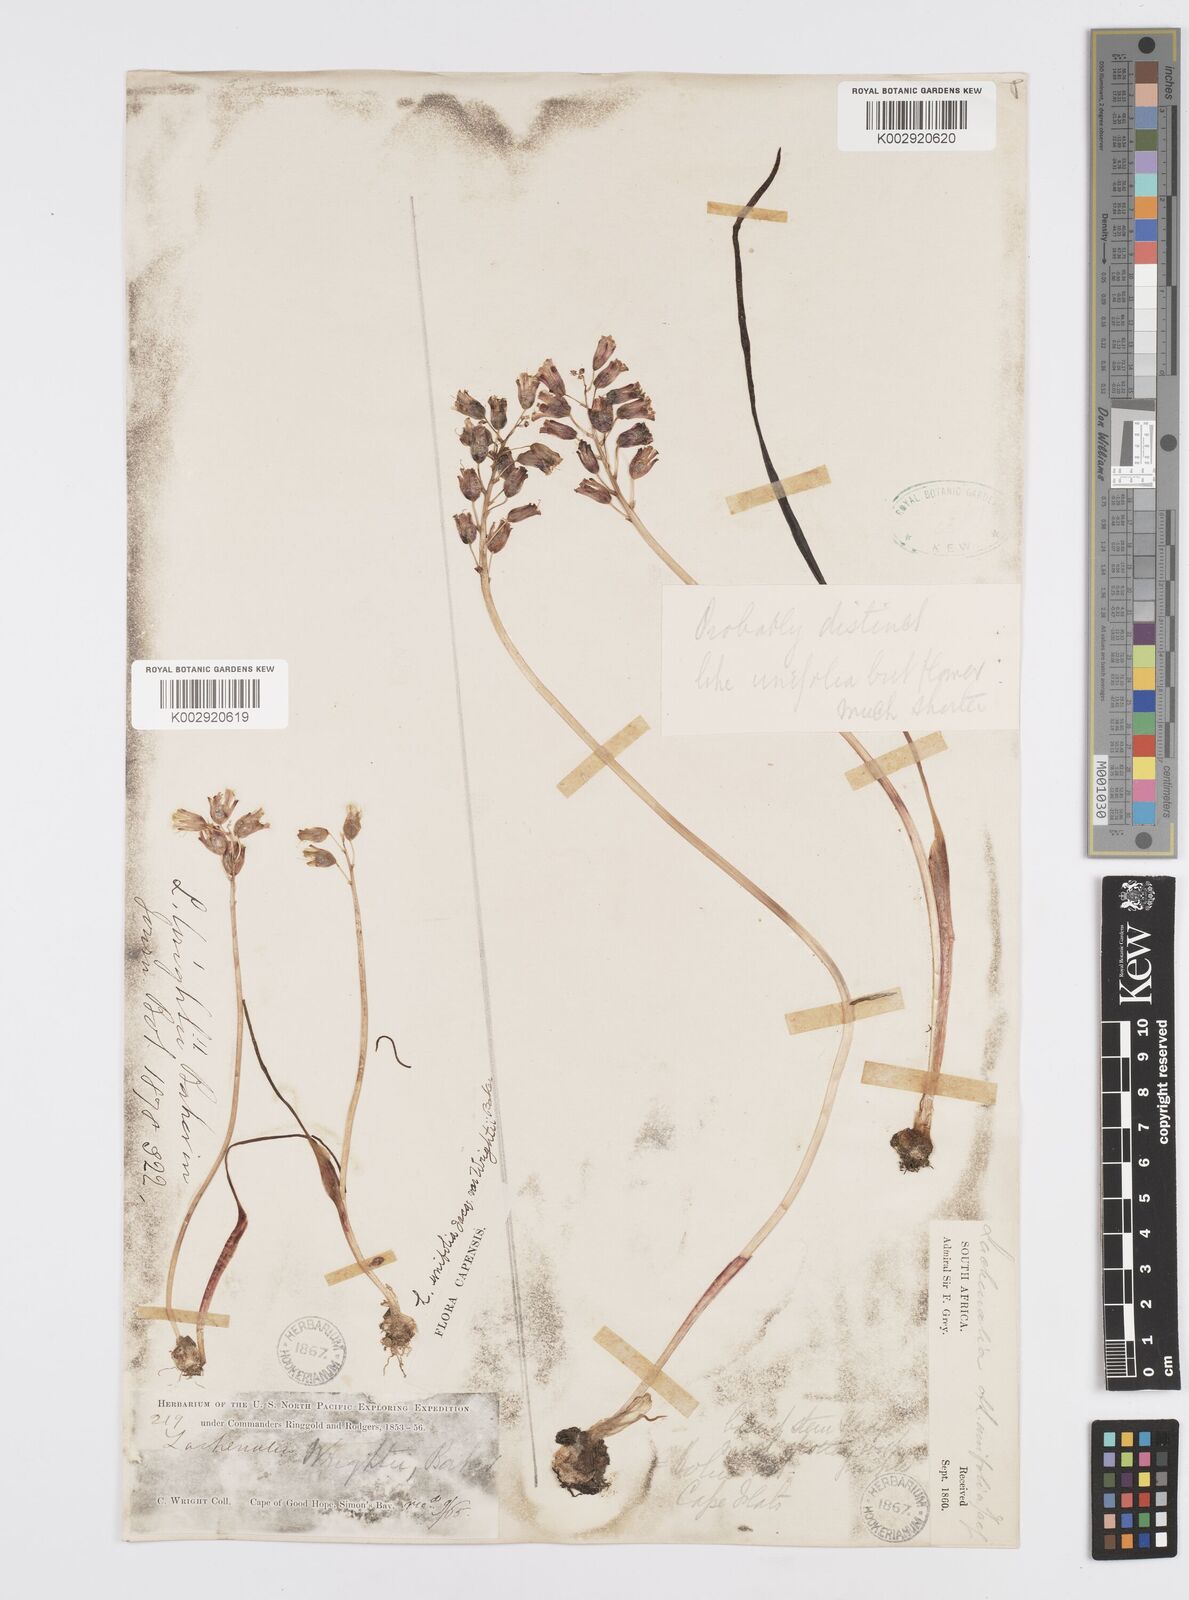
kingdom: Plantae
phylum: Tracheophyta
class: Liliopsida
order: Asparagales
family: Asparagaceae
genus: Lachenalia
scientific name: Lachenalia unifolia
